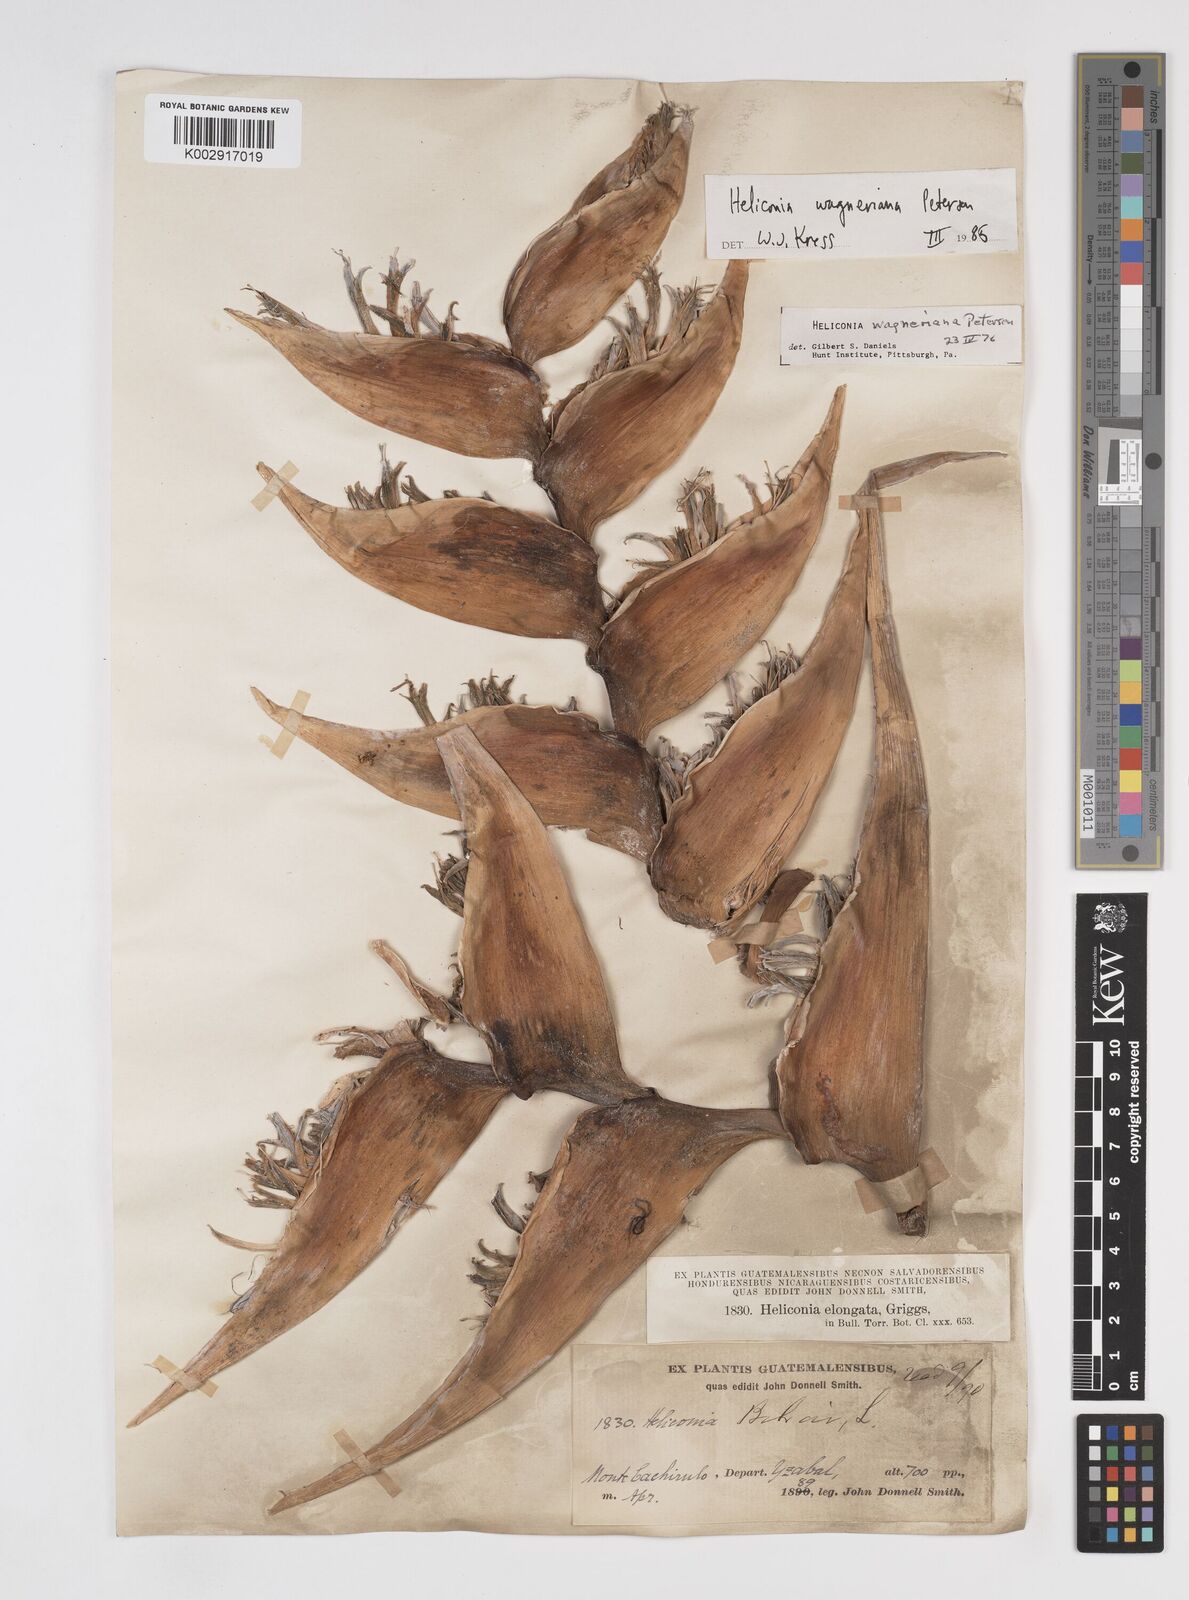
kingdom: Plantae
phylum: Tracheophyta
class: Liliopsida
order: Zingiberales
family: Heliconiaceae
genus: Heliconia
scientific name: Heliconia wagneriana
